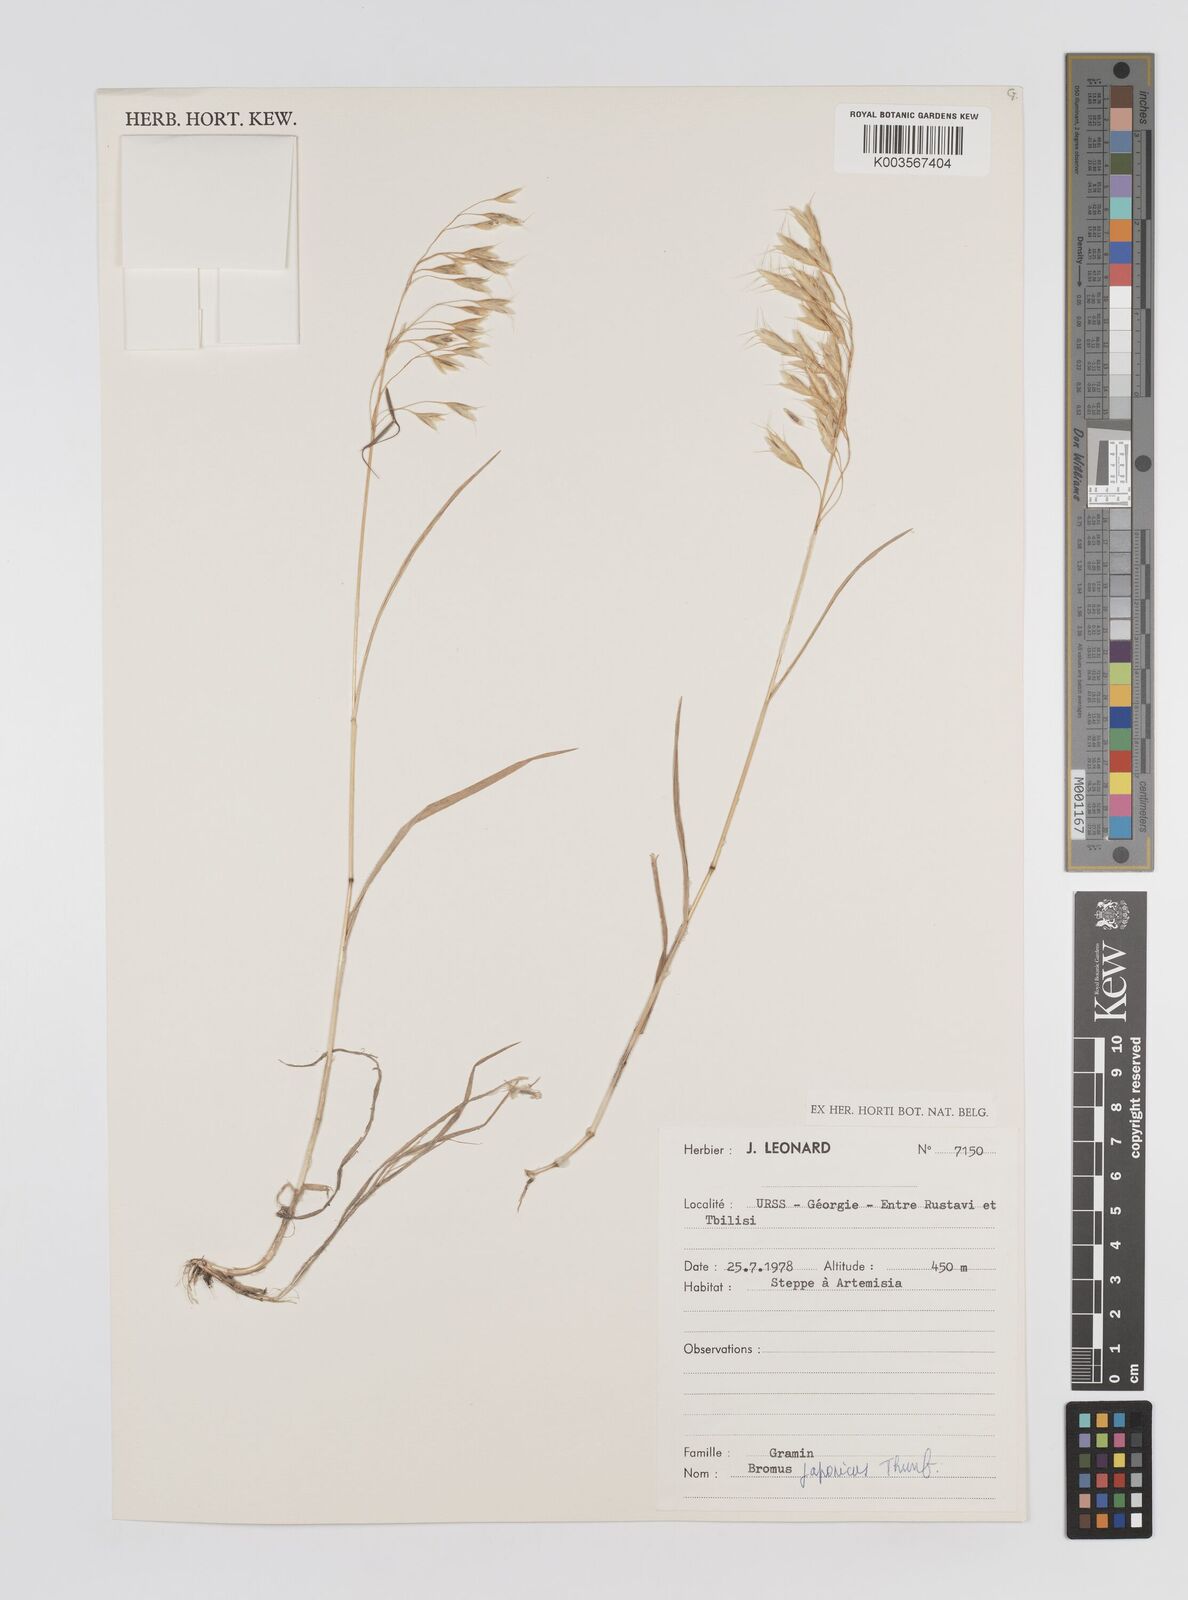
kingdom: Plantae
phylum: Tracheophyta
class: Liliopsida
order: Poales
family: Poaceae
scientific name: Poaceae
